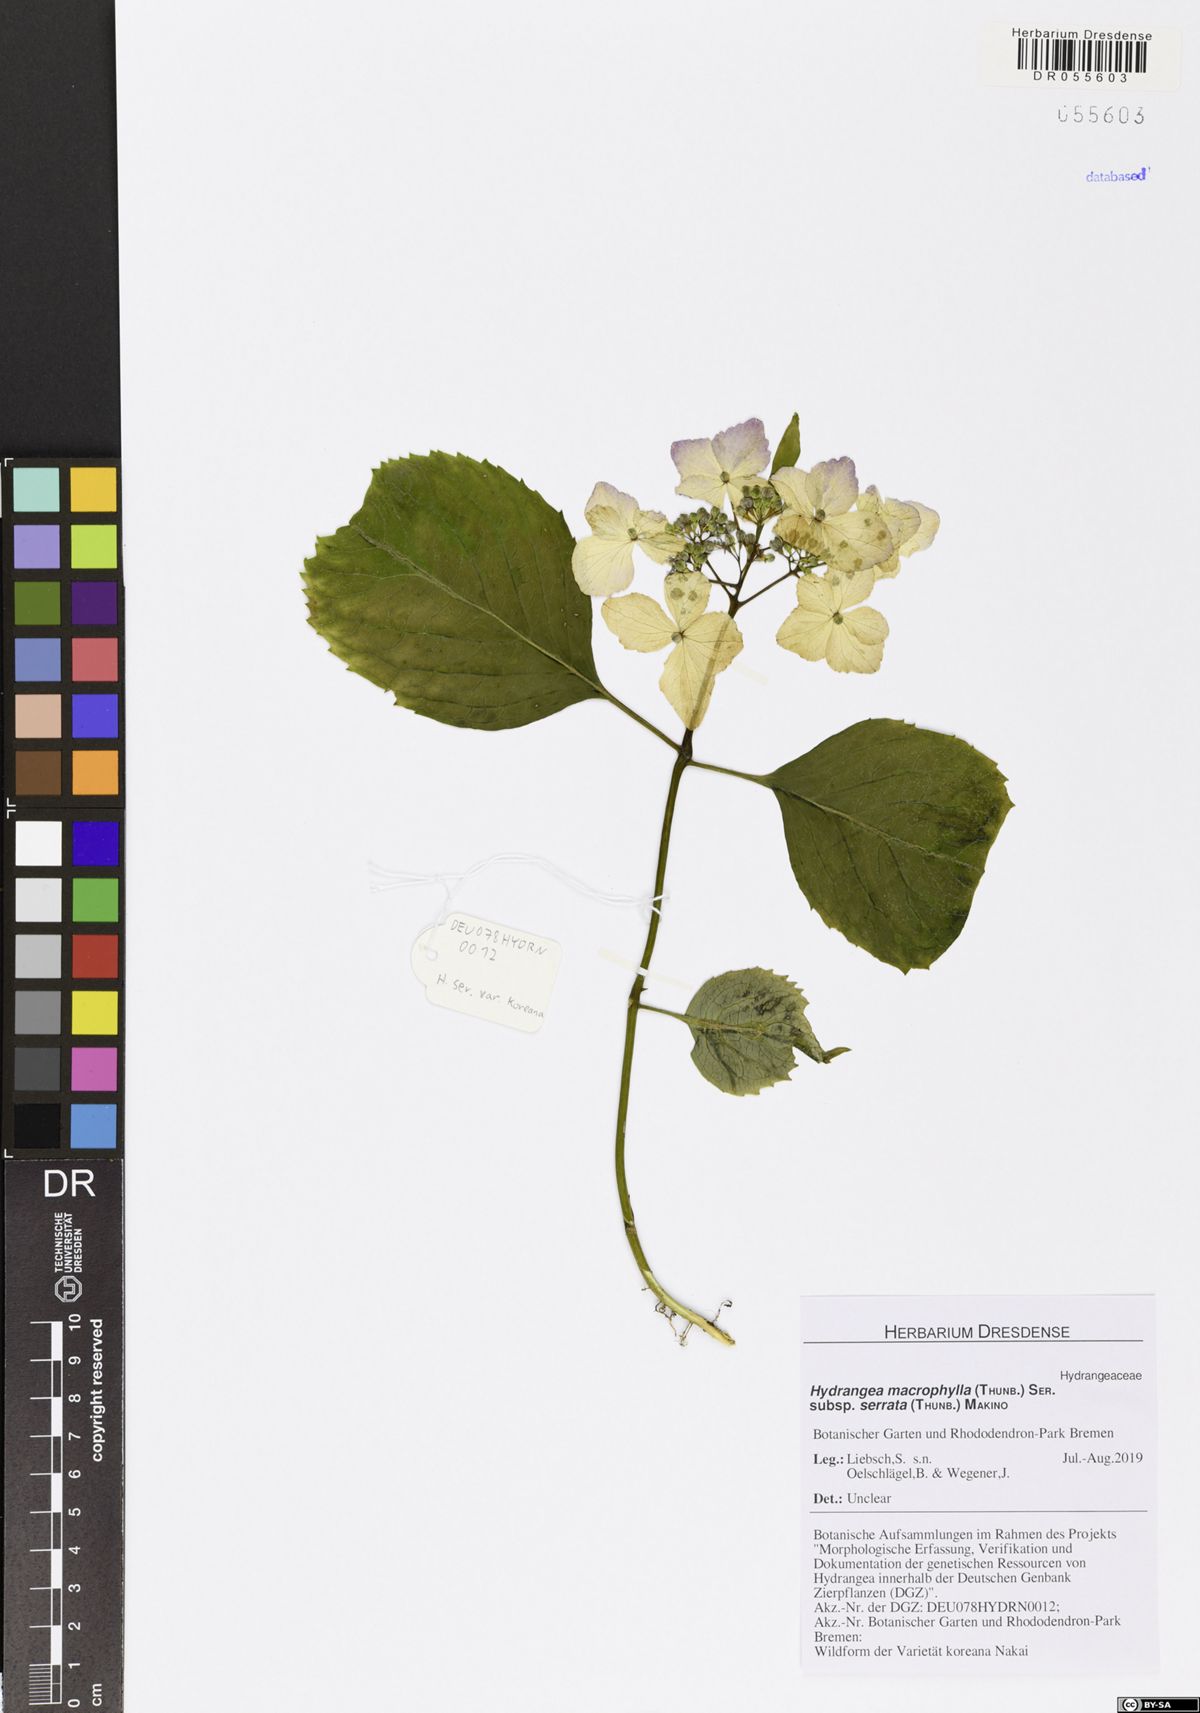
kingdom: Plantae
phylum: Tracheophyta
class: Magnoliopsida
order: Cornales
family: Hydrangeaceae
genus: Hydrangea
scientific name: Hydrangea serrata
